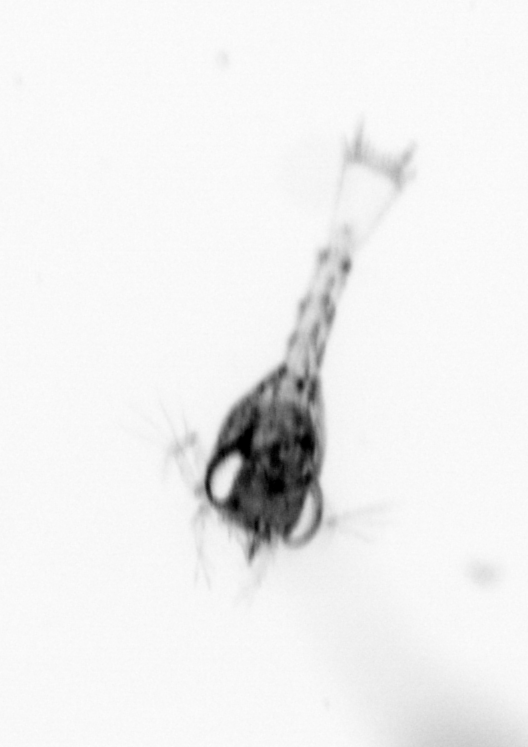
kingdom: Animalia
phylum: Arthropoda
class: Malacostraca
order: Decapoda
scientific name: Decapoda
